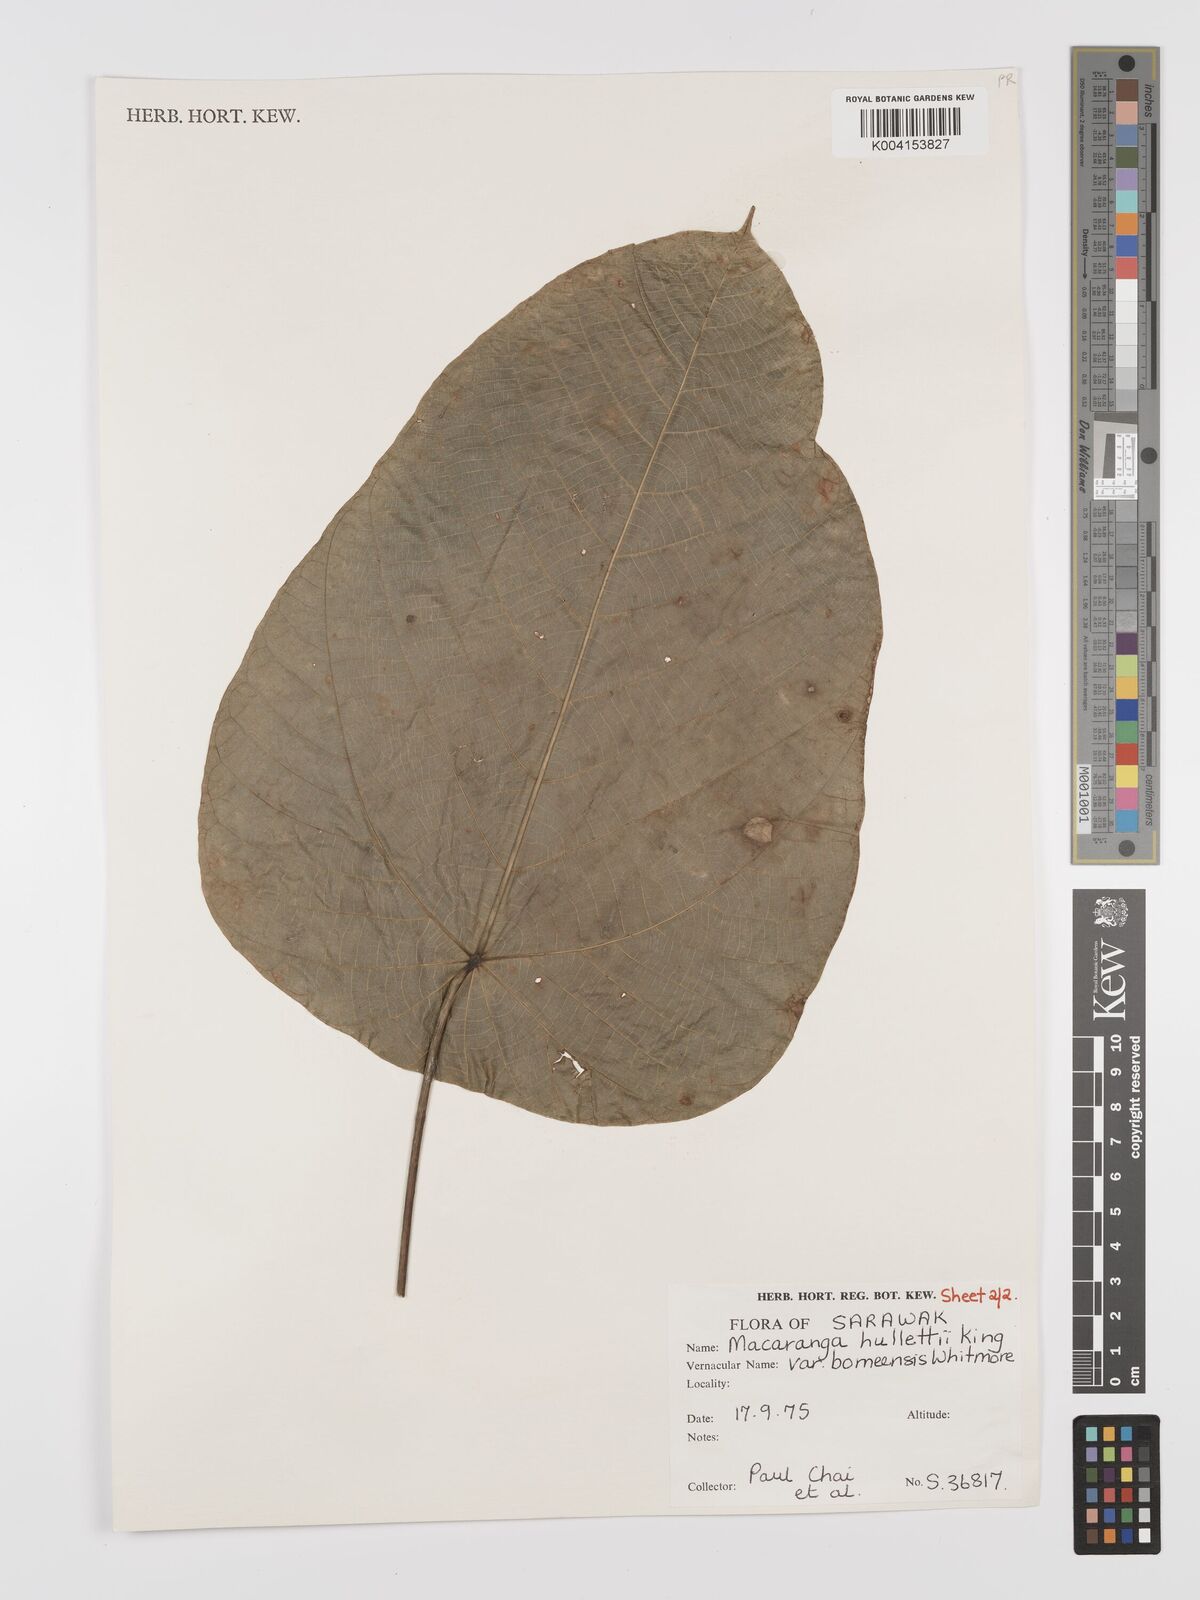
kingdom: Plantae
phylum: Tracheophyta
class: Magnoliopsida
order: Malpighiales
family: Euphorbiaceae
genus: Macaranga
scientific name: Macaranga hullettii
